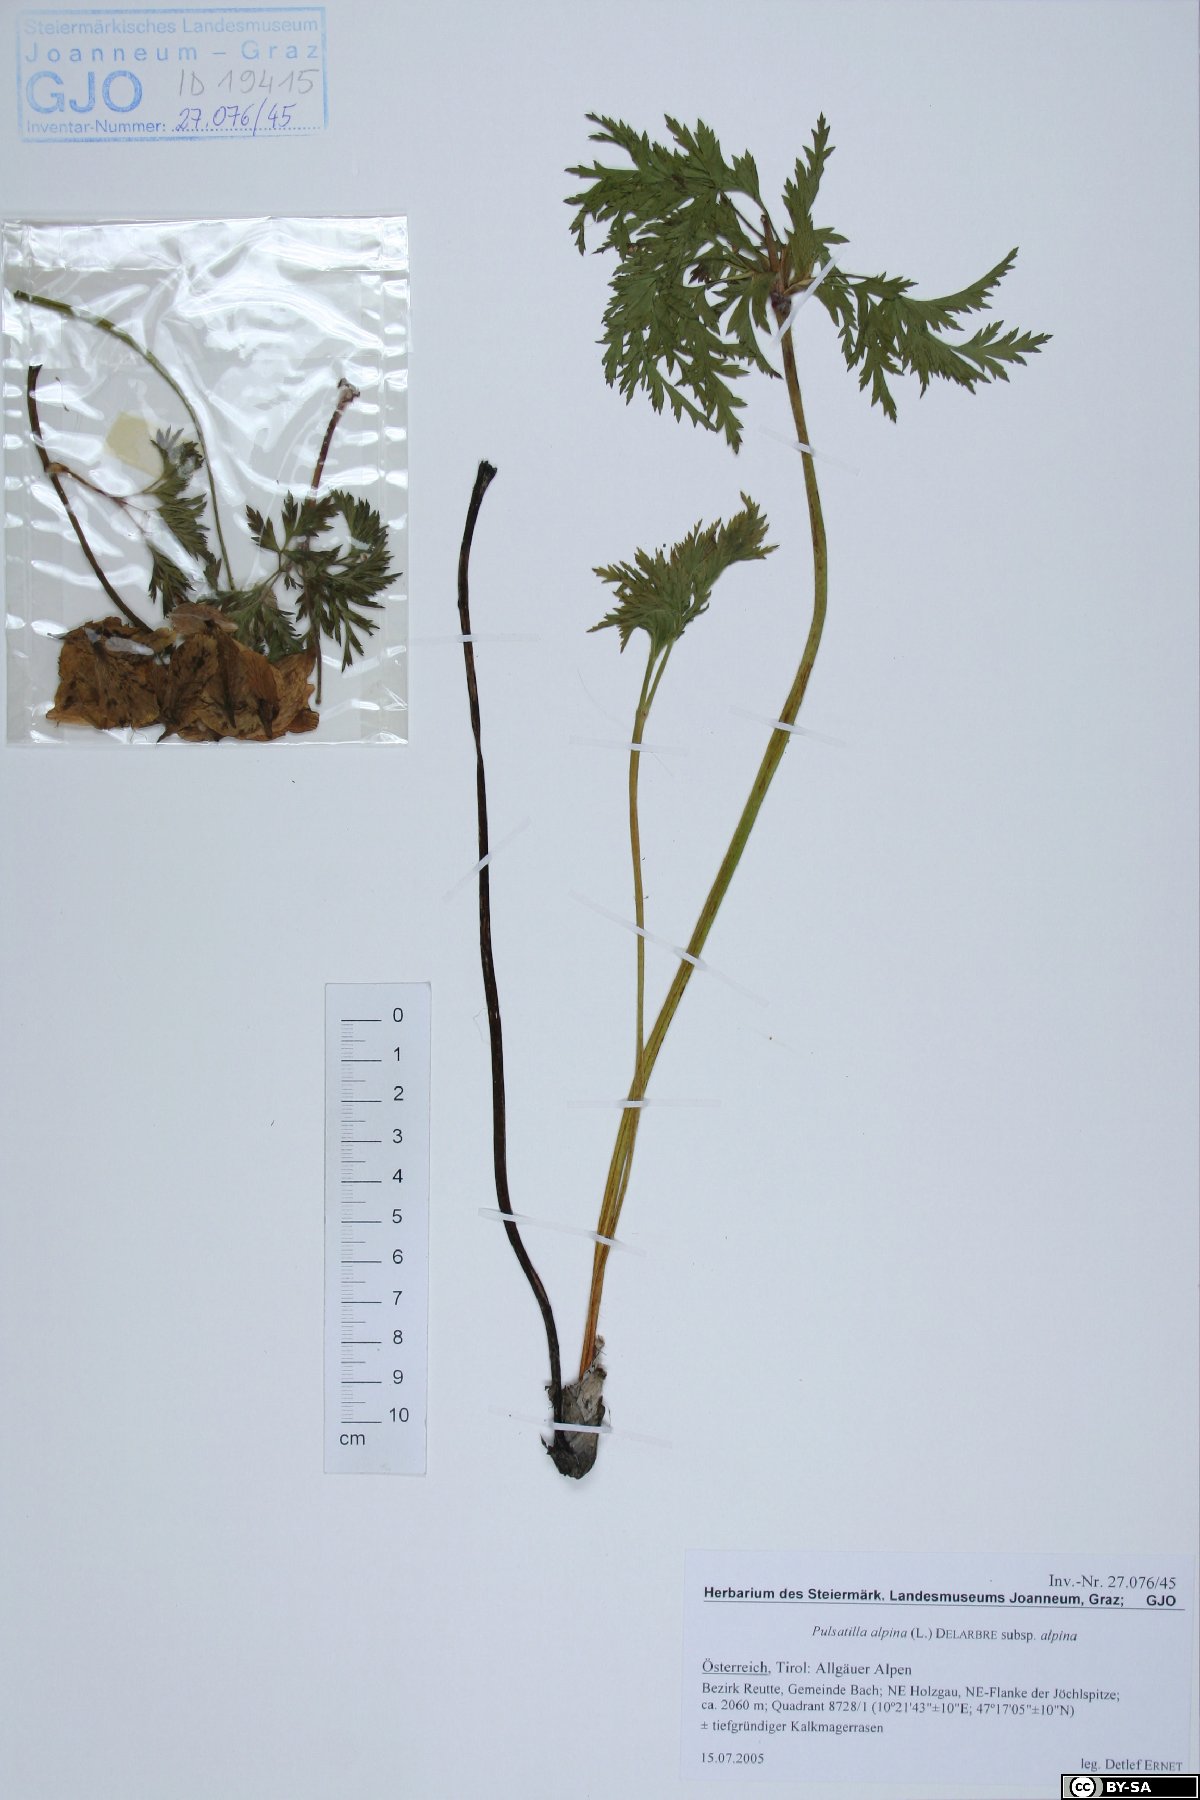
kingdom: Plantae
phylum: Tracheophyta
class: Magnoliopsida
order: Ranunculales
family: Ranunculaceae
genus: Pulsatilla
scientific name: Pulsatilla alpina
